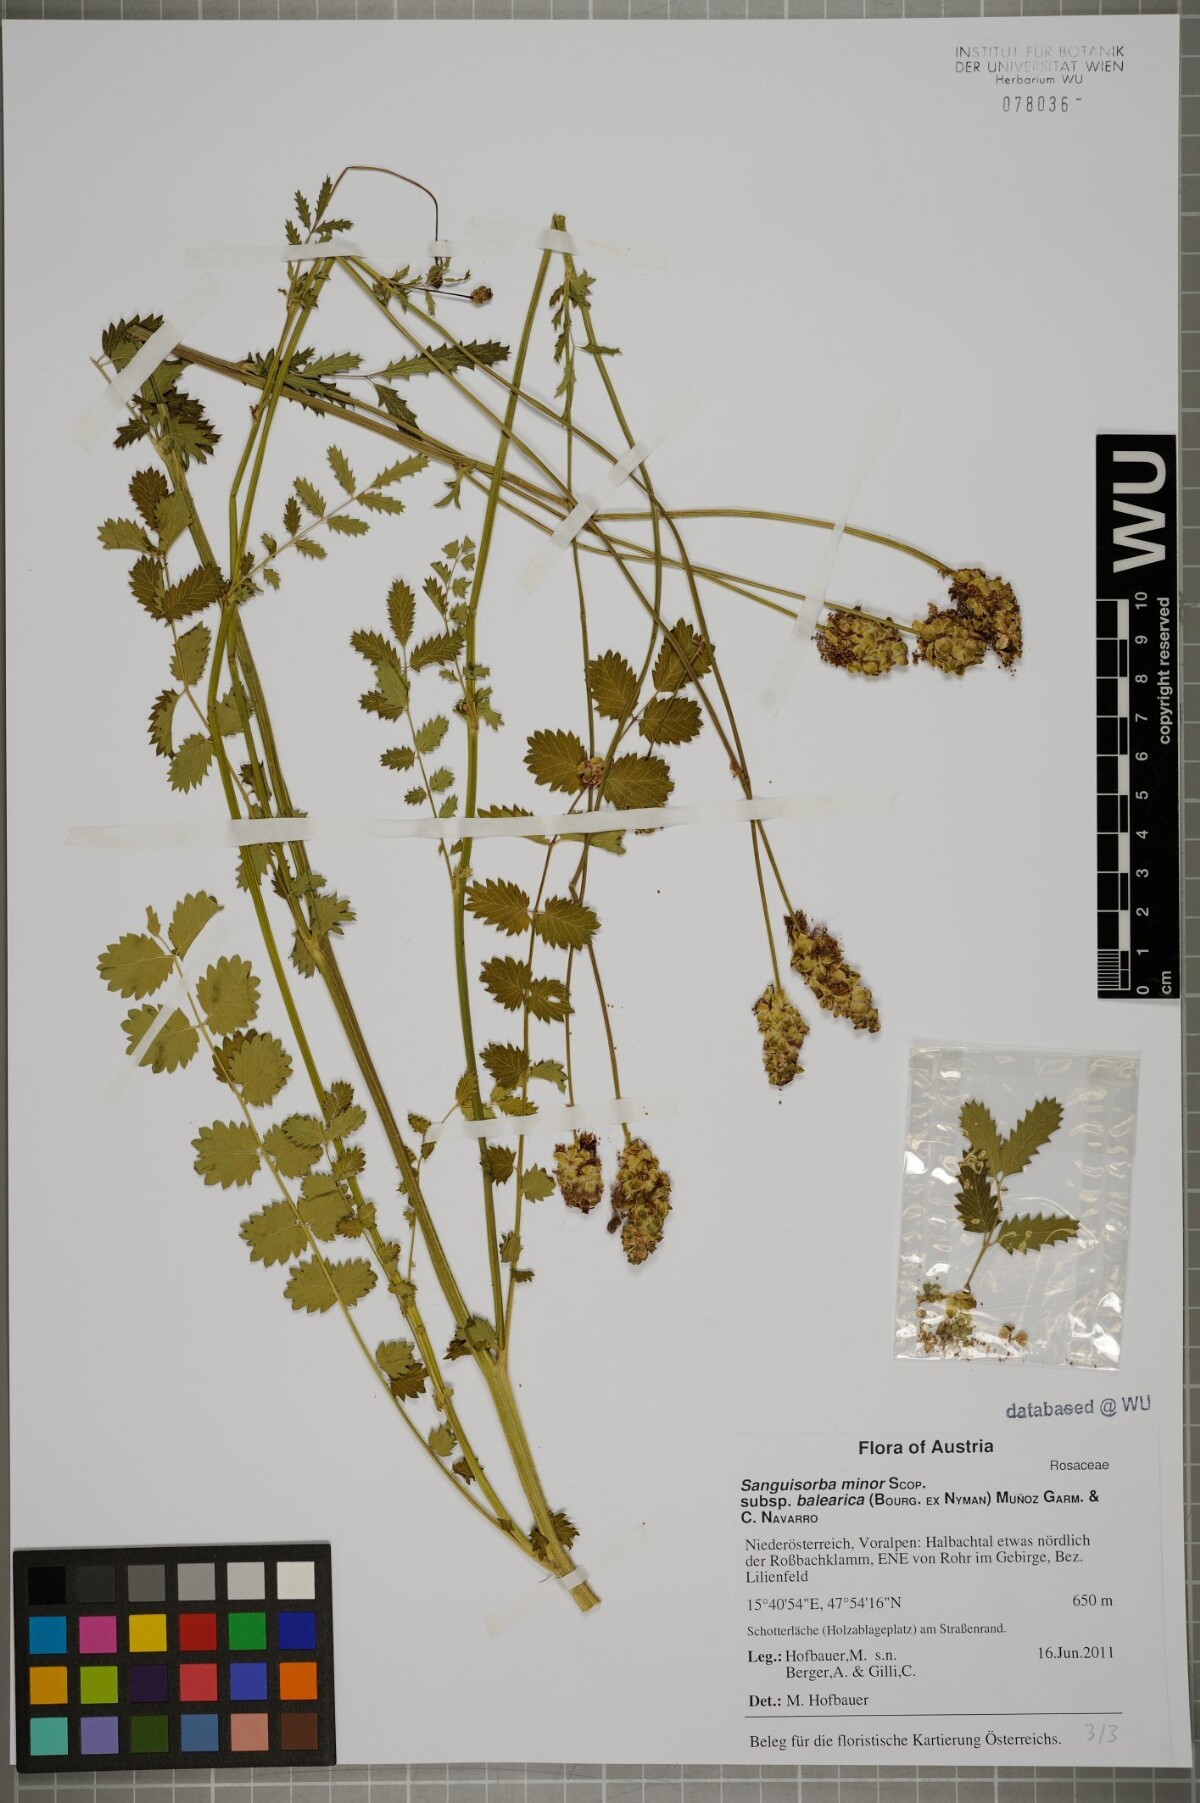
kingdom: Plantae
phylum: Tracheophyta
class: Magnoliopsida
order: Rosales
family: Rosaceae
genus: Poterium
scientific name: Poterium sanguisorba
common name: Salad burnet
